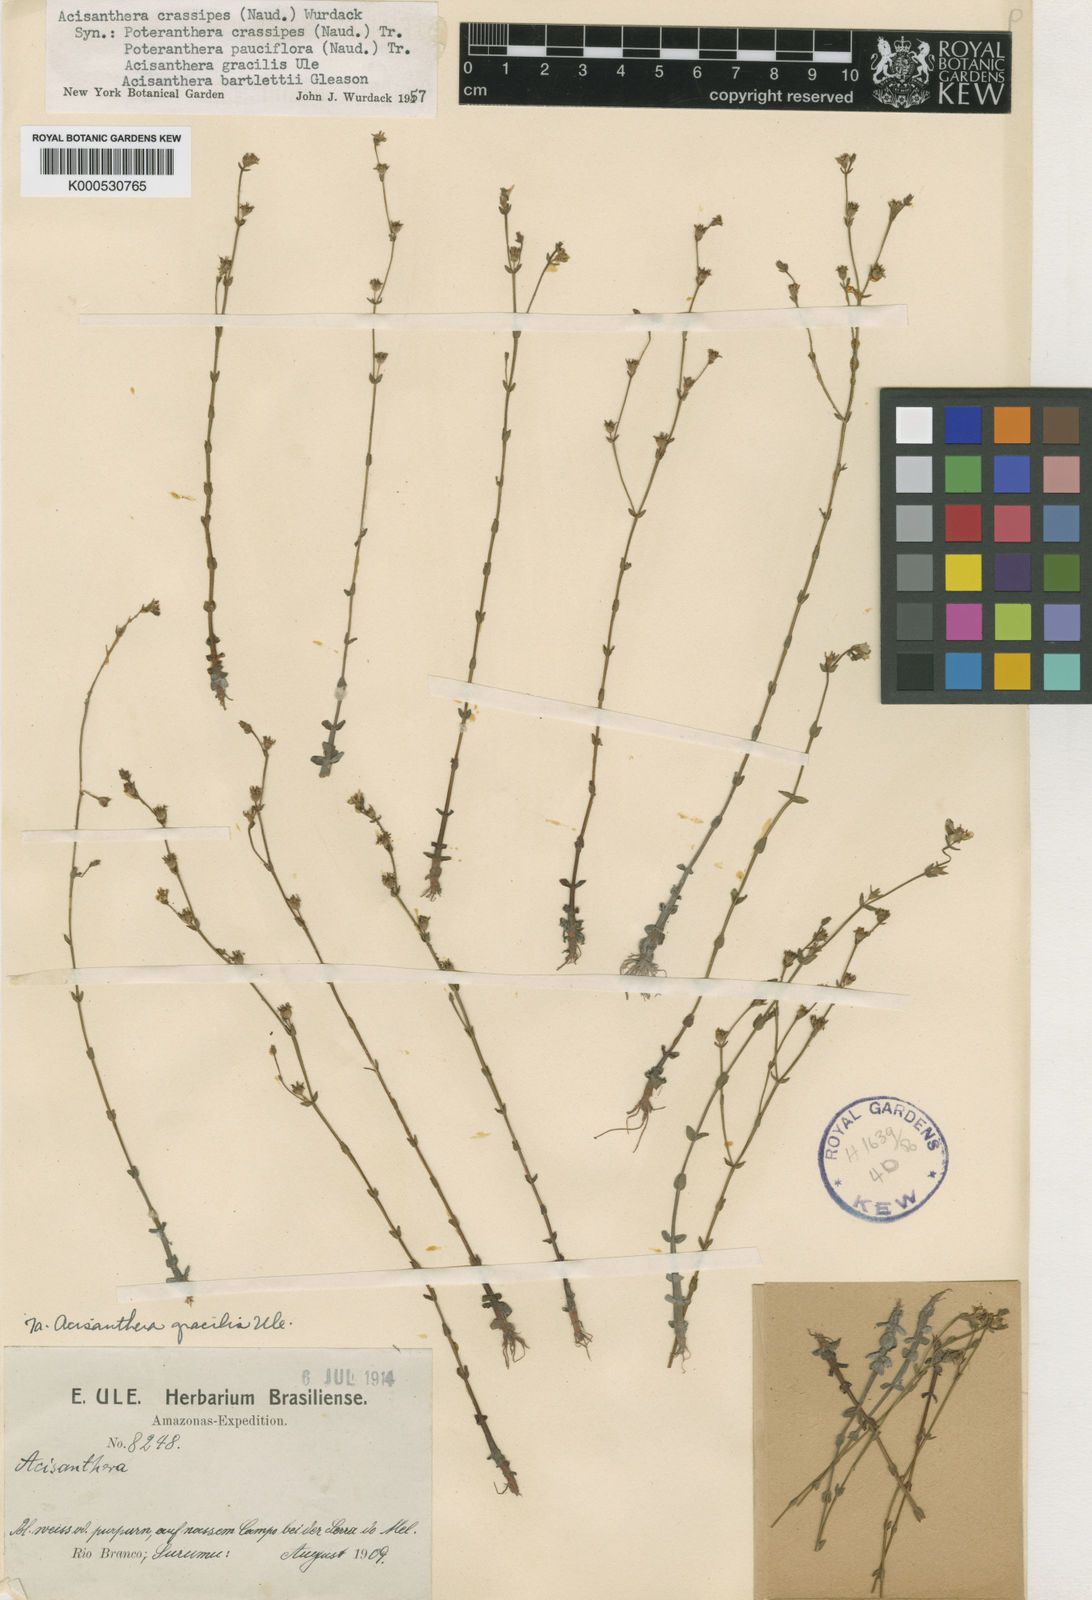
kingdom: Plantae
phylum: Tracheophyta
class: Magnoliopsida
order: Myrtales
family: Melastomataceae
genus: Noterophila
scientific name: Noterophila crassipes
